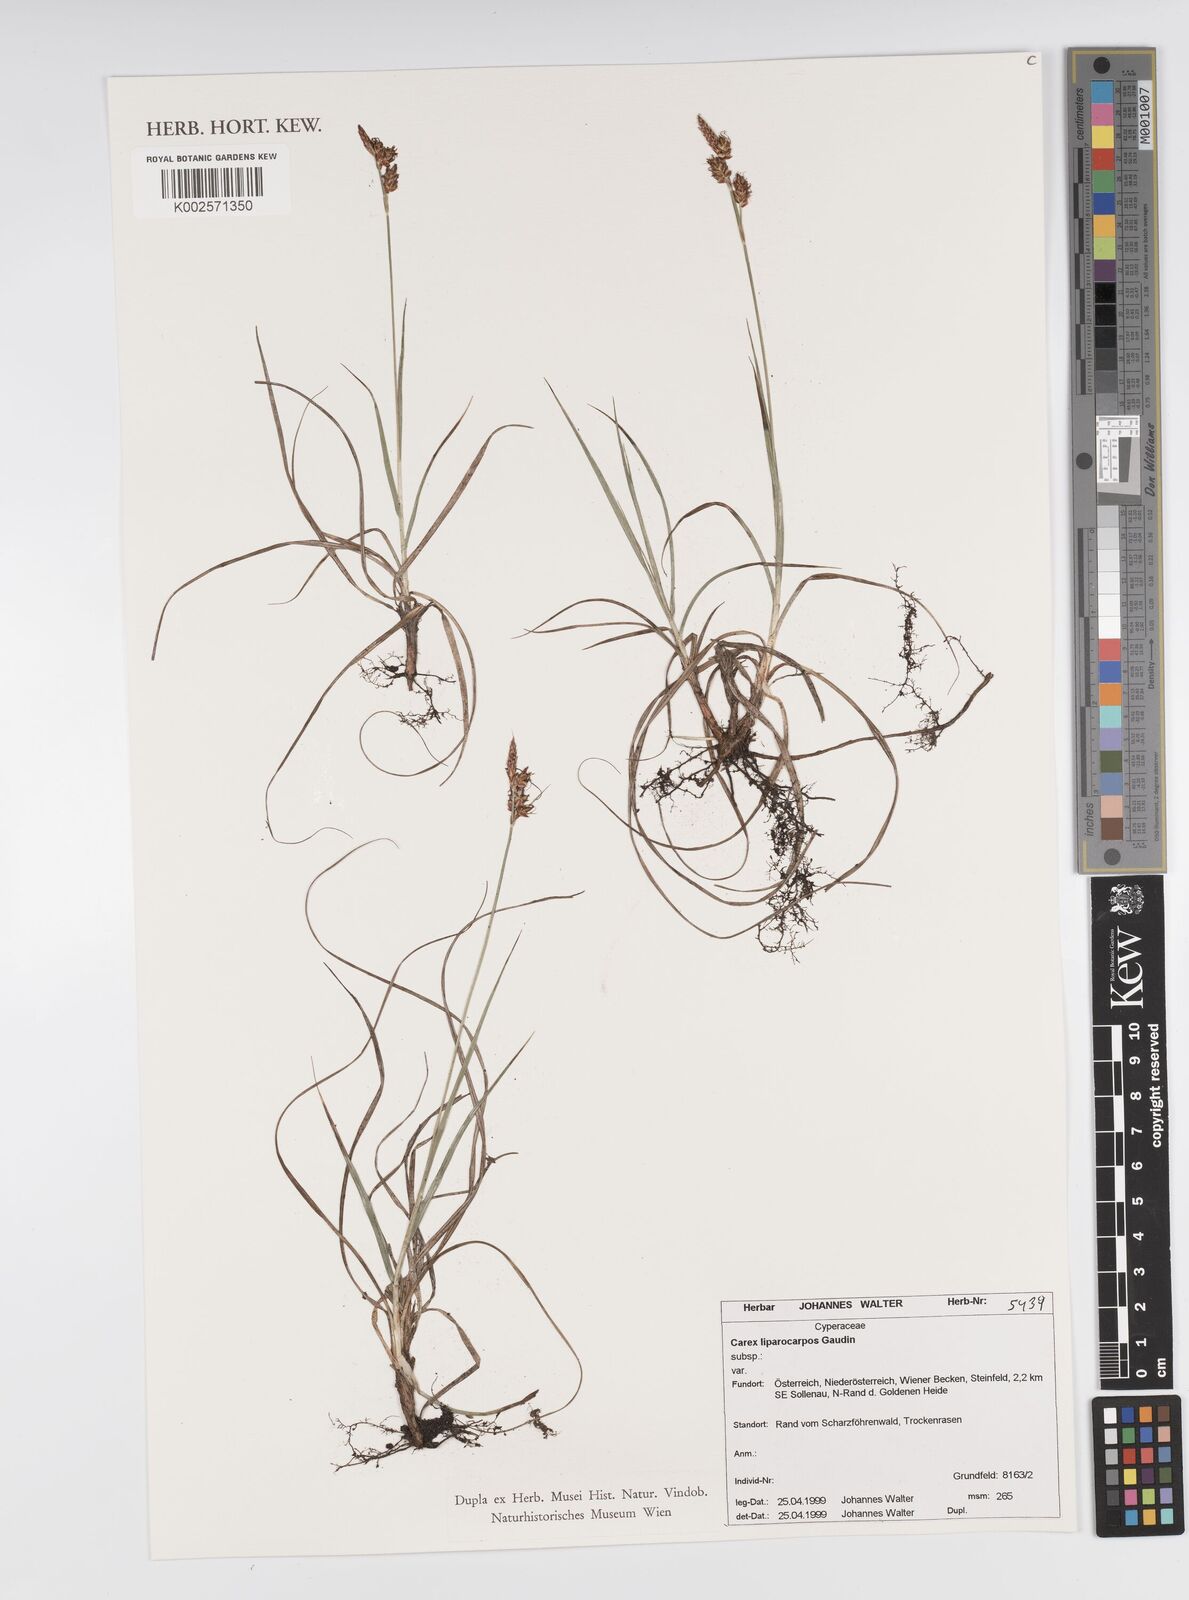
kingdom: Plantae
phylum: Tracheophyta
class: Liliopsida
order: Poales
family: Cyperaceae
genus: Carex
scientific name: Carex liparocarpos
